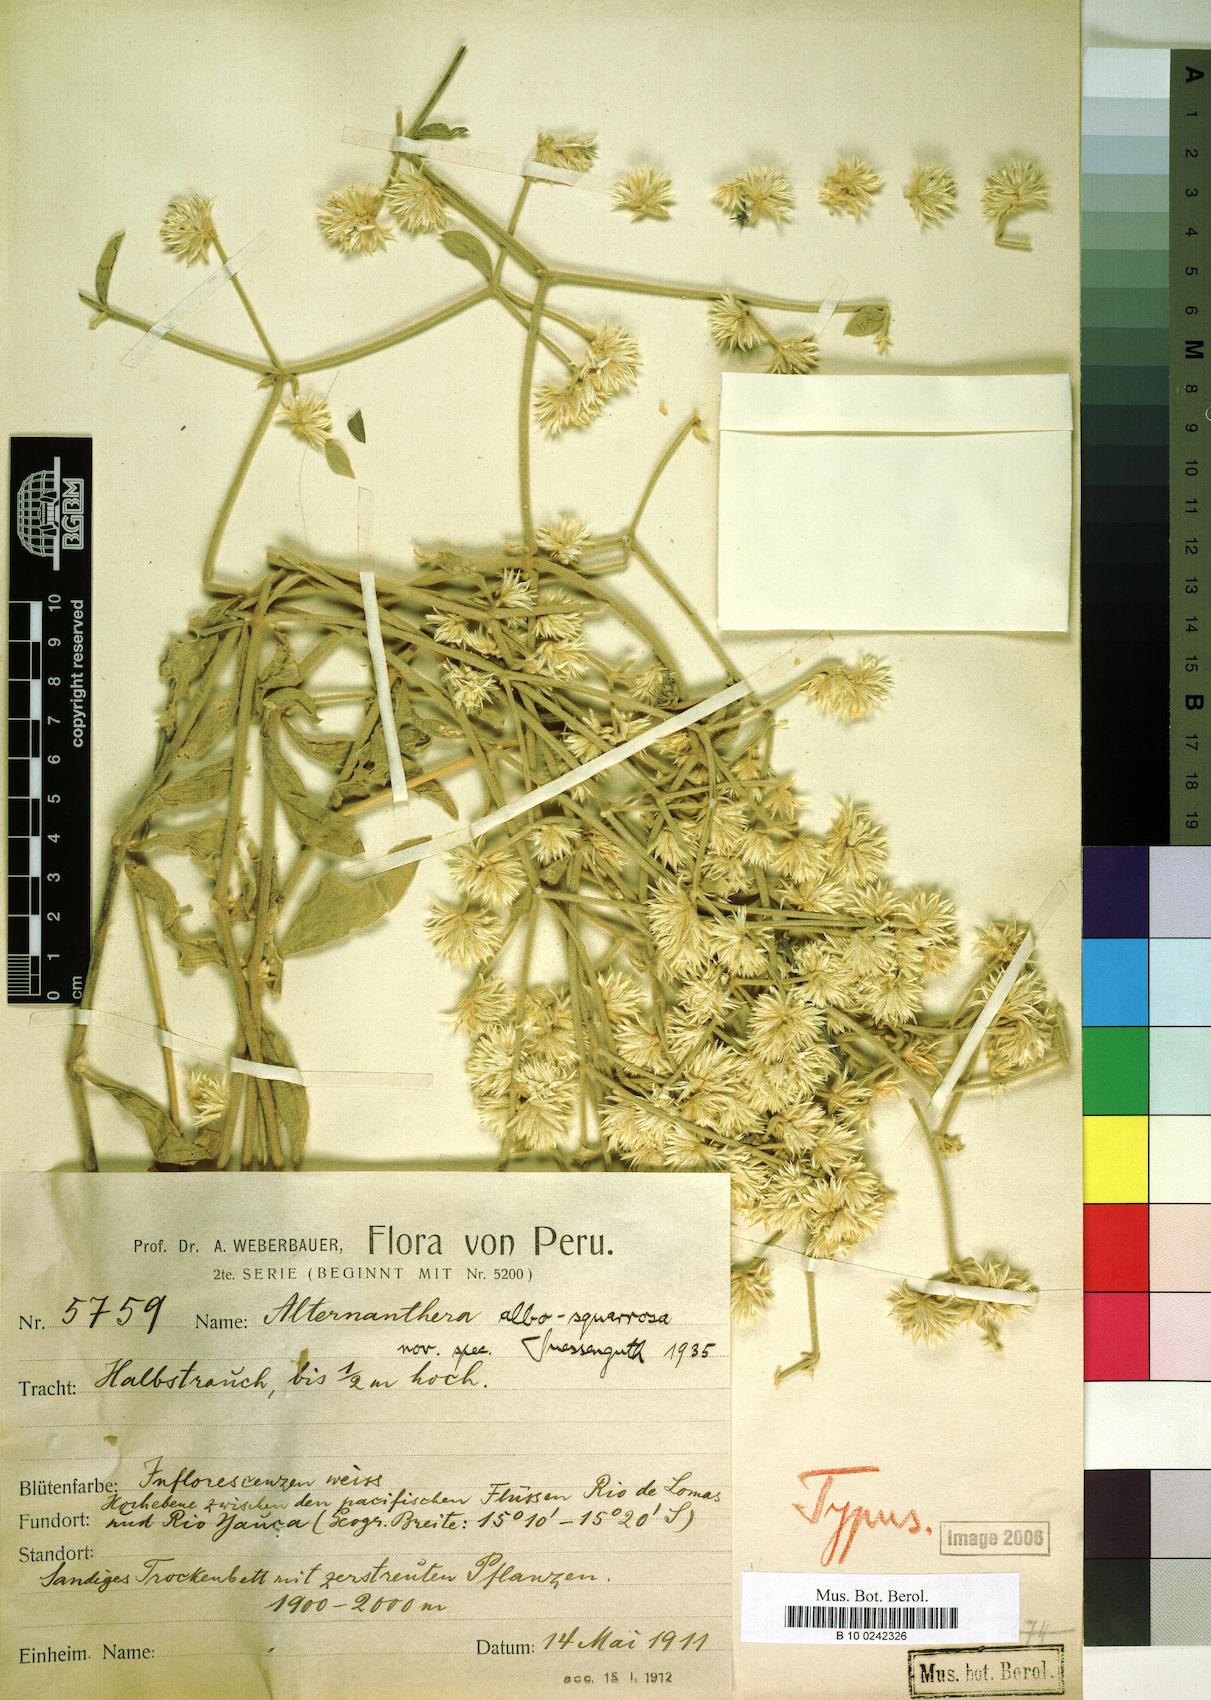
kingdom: Plantae
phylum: Tracheophyta
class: Magnoliopsida
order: Caryophyllales
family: Amaranthaceae
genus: Alternanthera
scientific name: Alternanthera albosquarrosa
